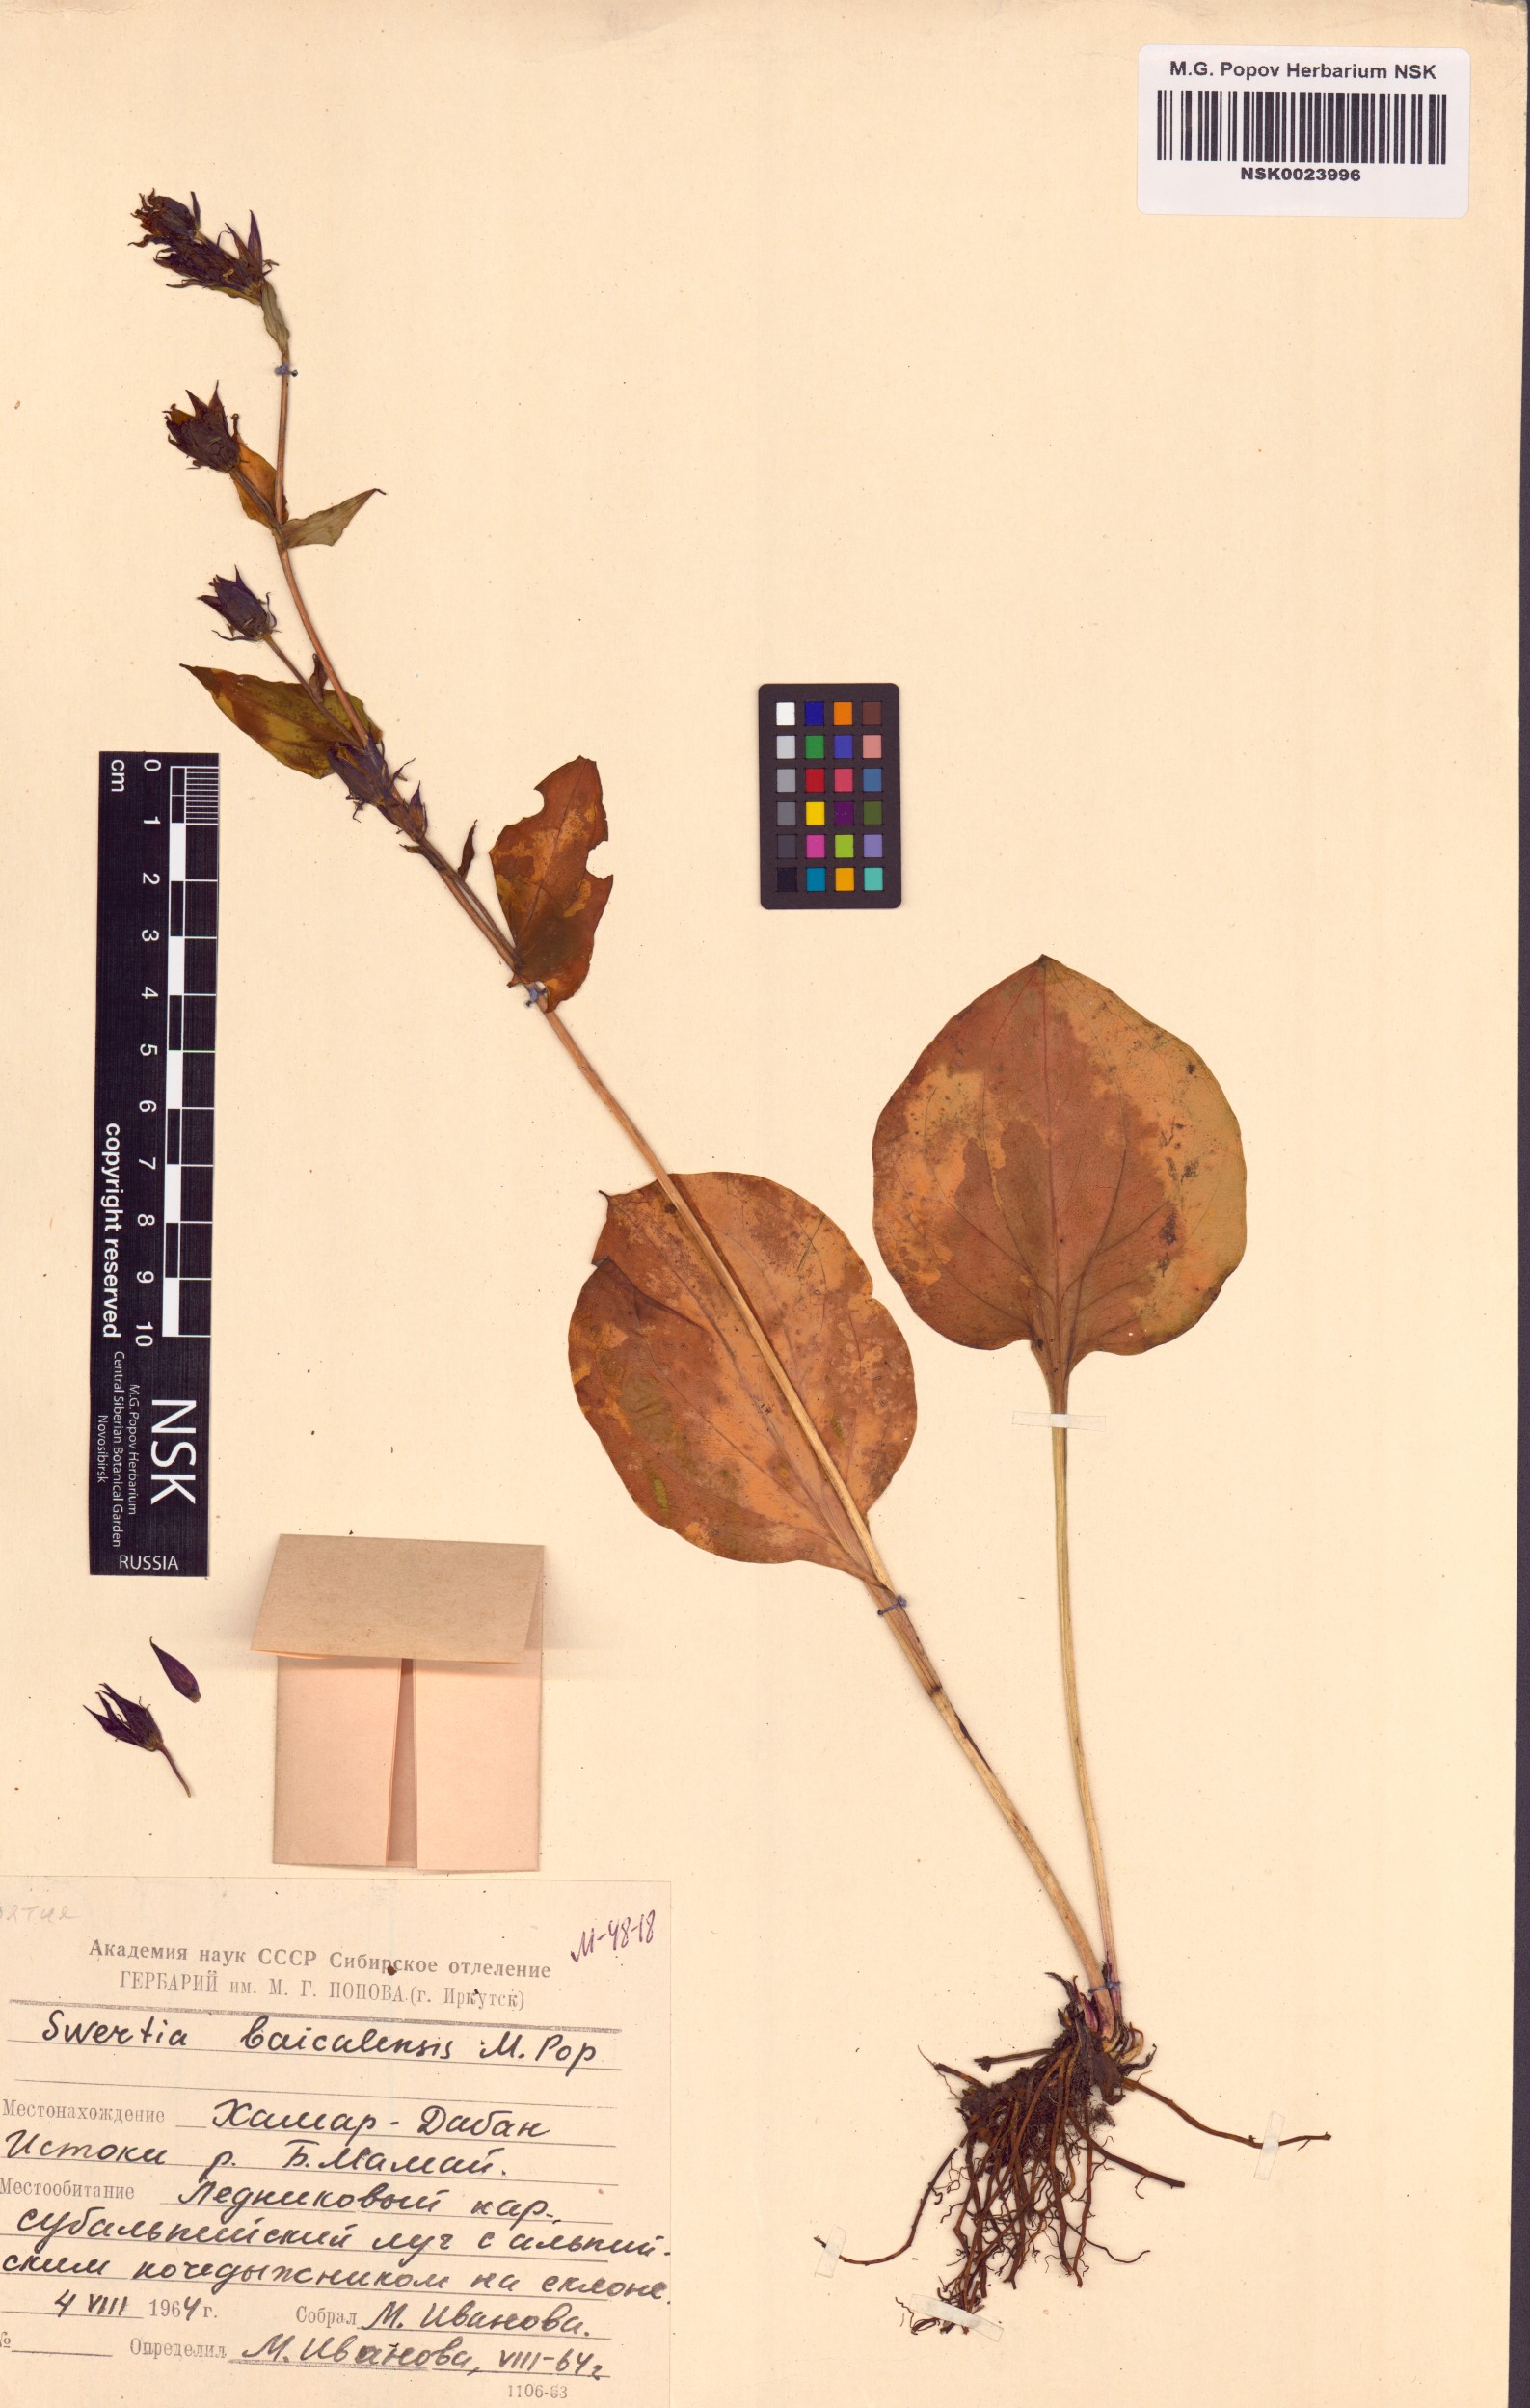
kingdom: Plantae
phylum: Tracheophyta
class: Magnoliopsida
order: Gentianales
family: Gentianaceae
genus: Swertia
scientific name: Swertia obtusa
